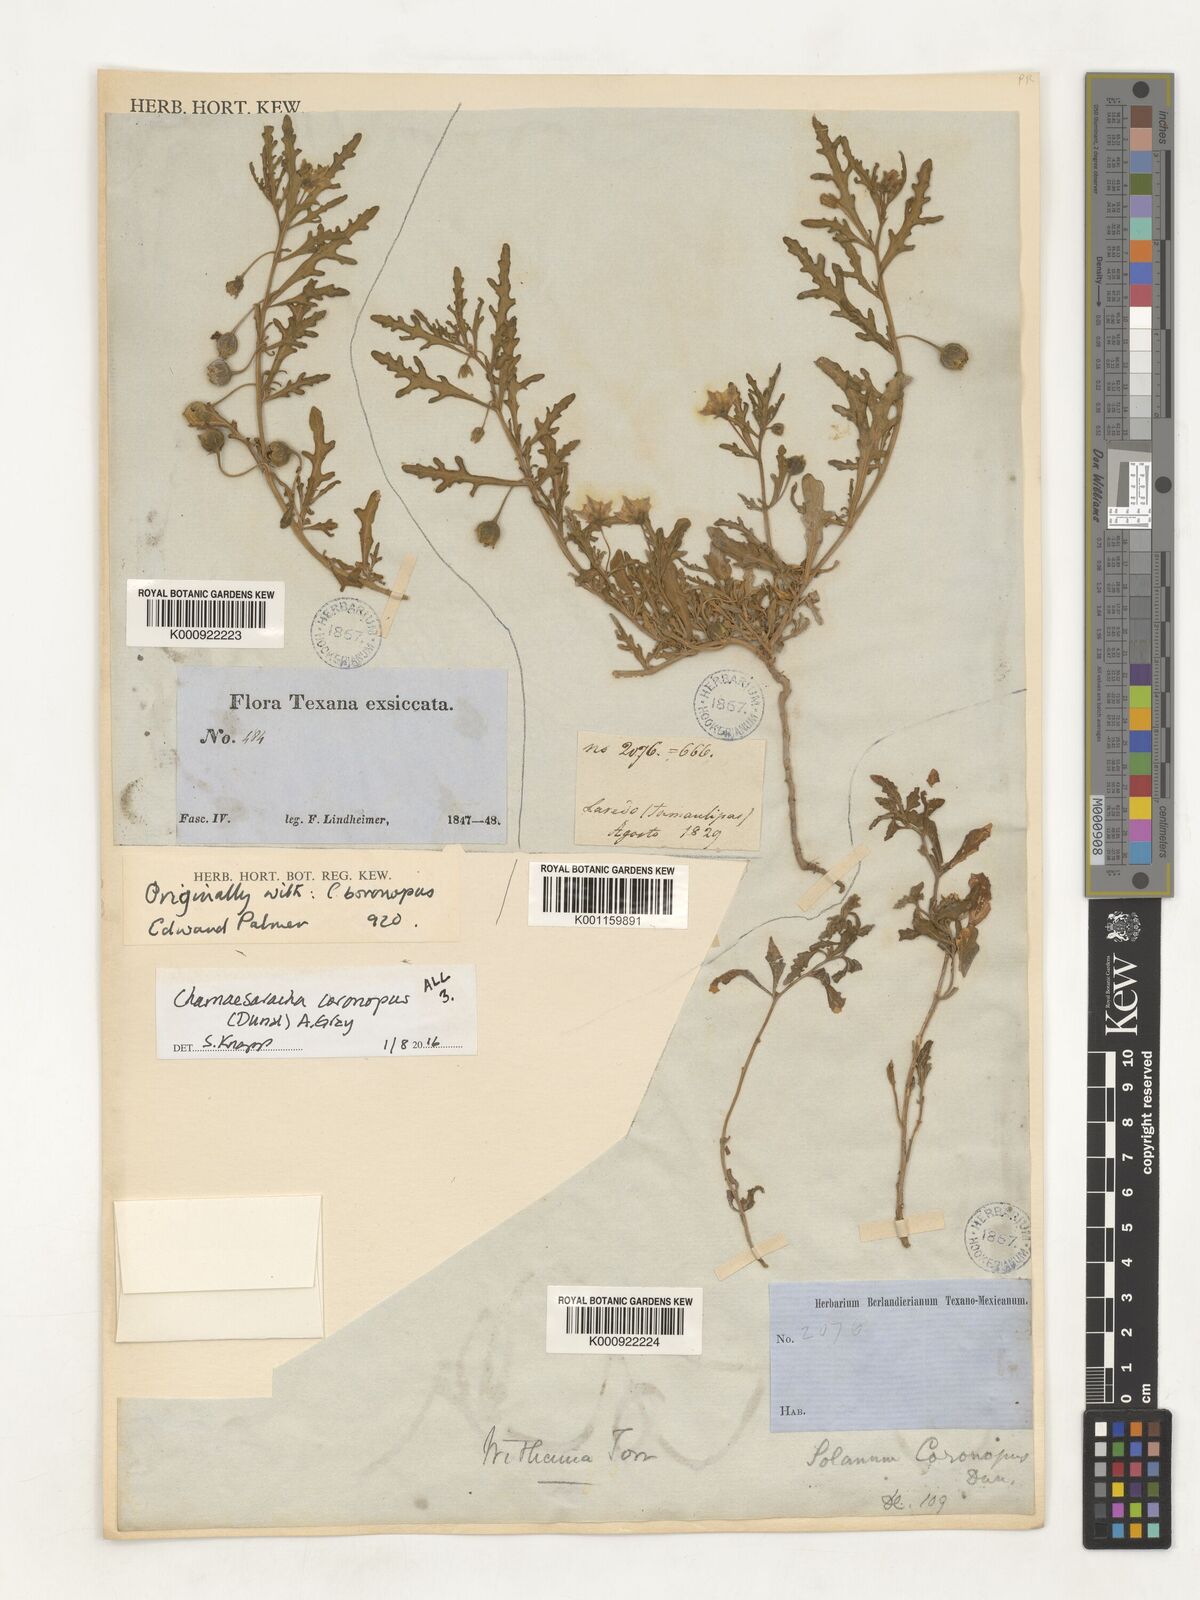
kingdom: Plantae
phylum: Tracheophyta
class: Magnoliopsida
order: Solanales
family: Solanaceae
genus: Chamaesaracha
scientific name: Chamaesaracha coronopus
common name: Smooth chamaesaracha
